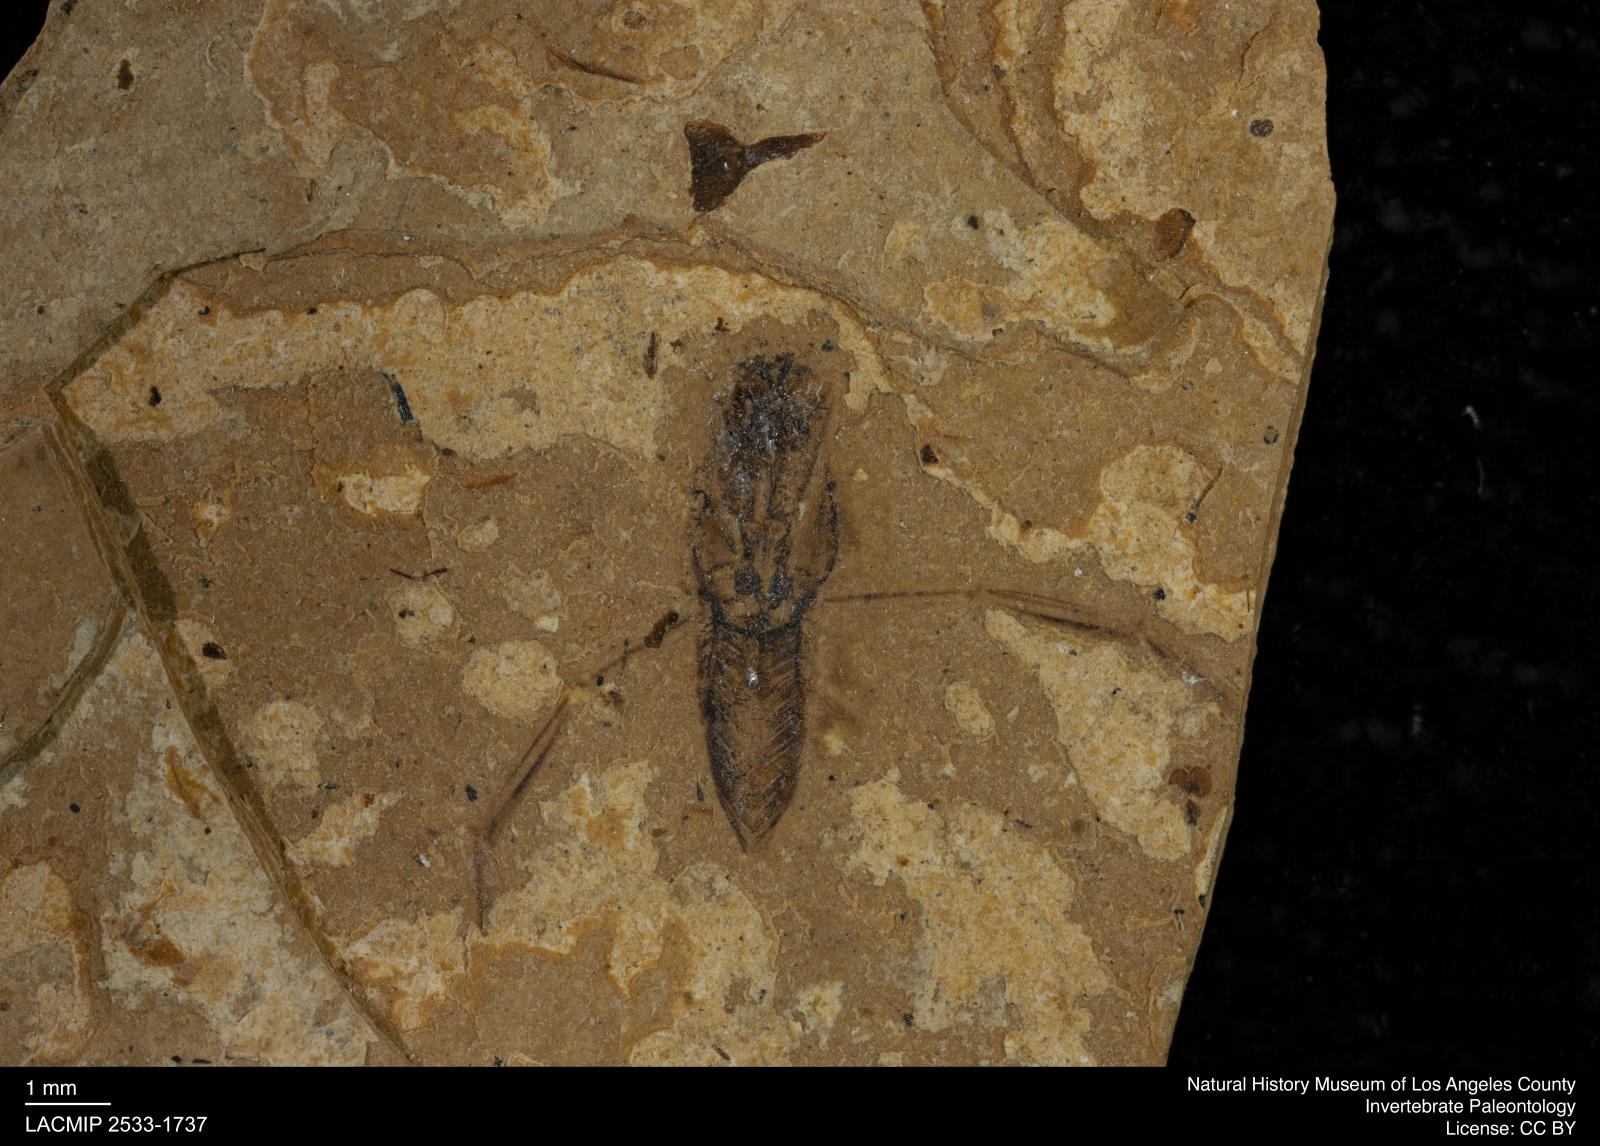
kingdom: Animalia
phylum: Arthropoda
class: Insecta
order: Hemiptera
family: Notonectidae
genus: Notonecta
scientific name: Notonecta
